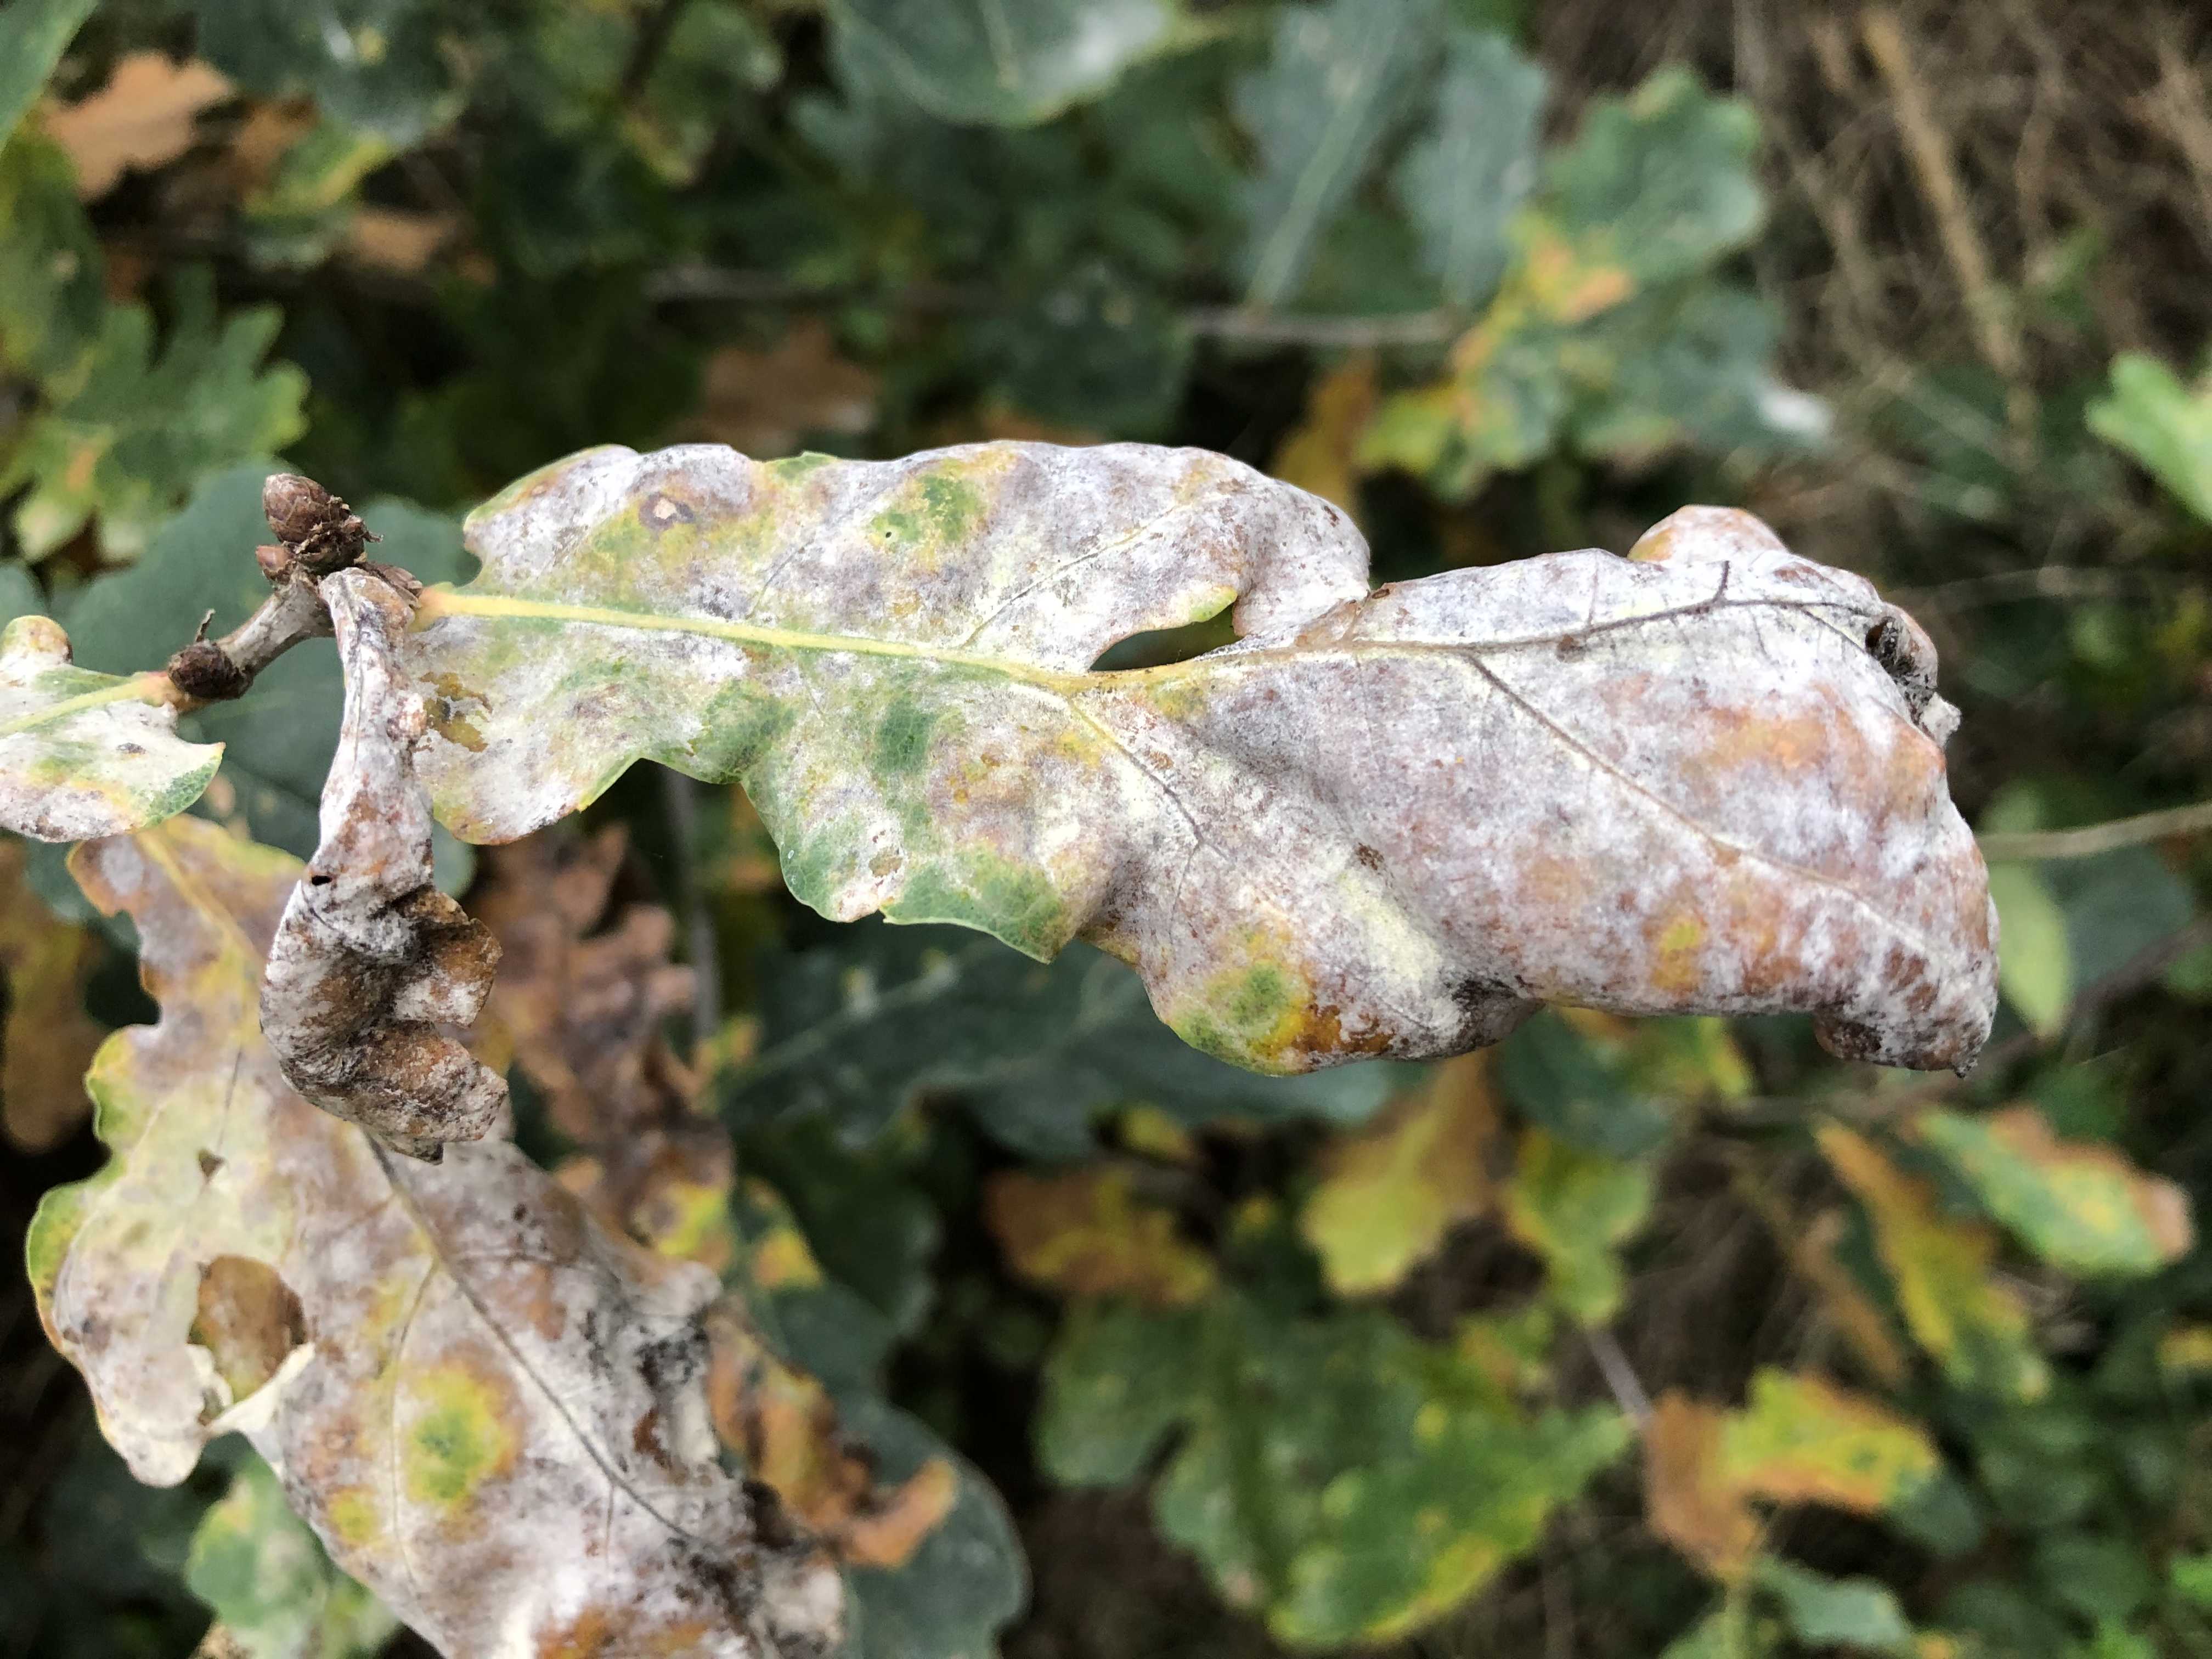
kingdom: Fungi
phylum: Ascomycota
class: Leotiomycetes
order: Helotiales
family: Erysiphaceae
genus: Erysiphe
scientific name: Erysiphe alphitoides
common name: ege-meldug
